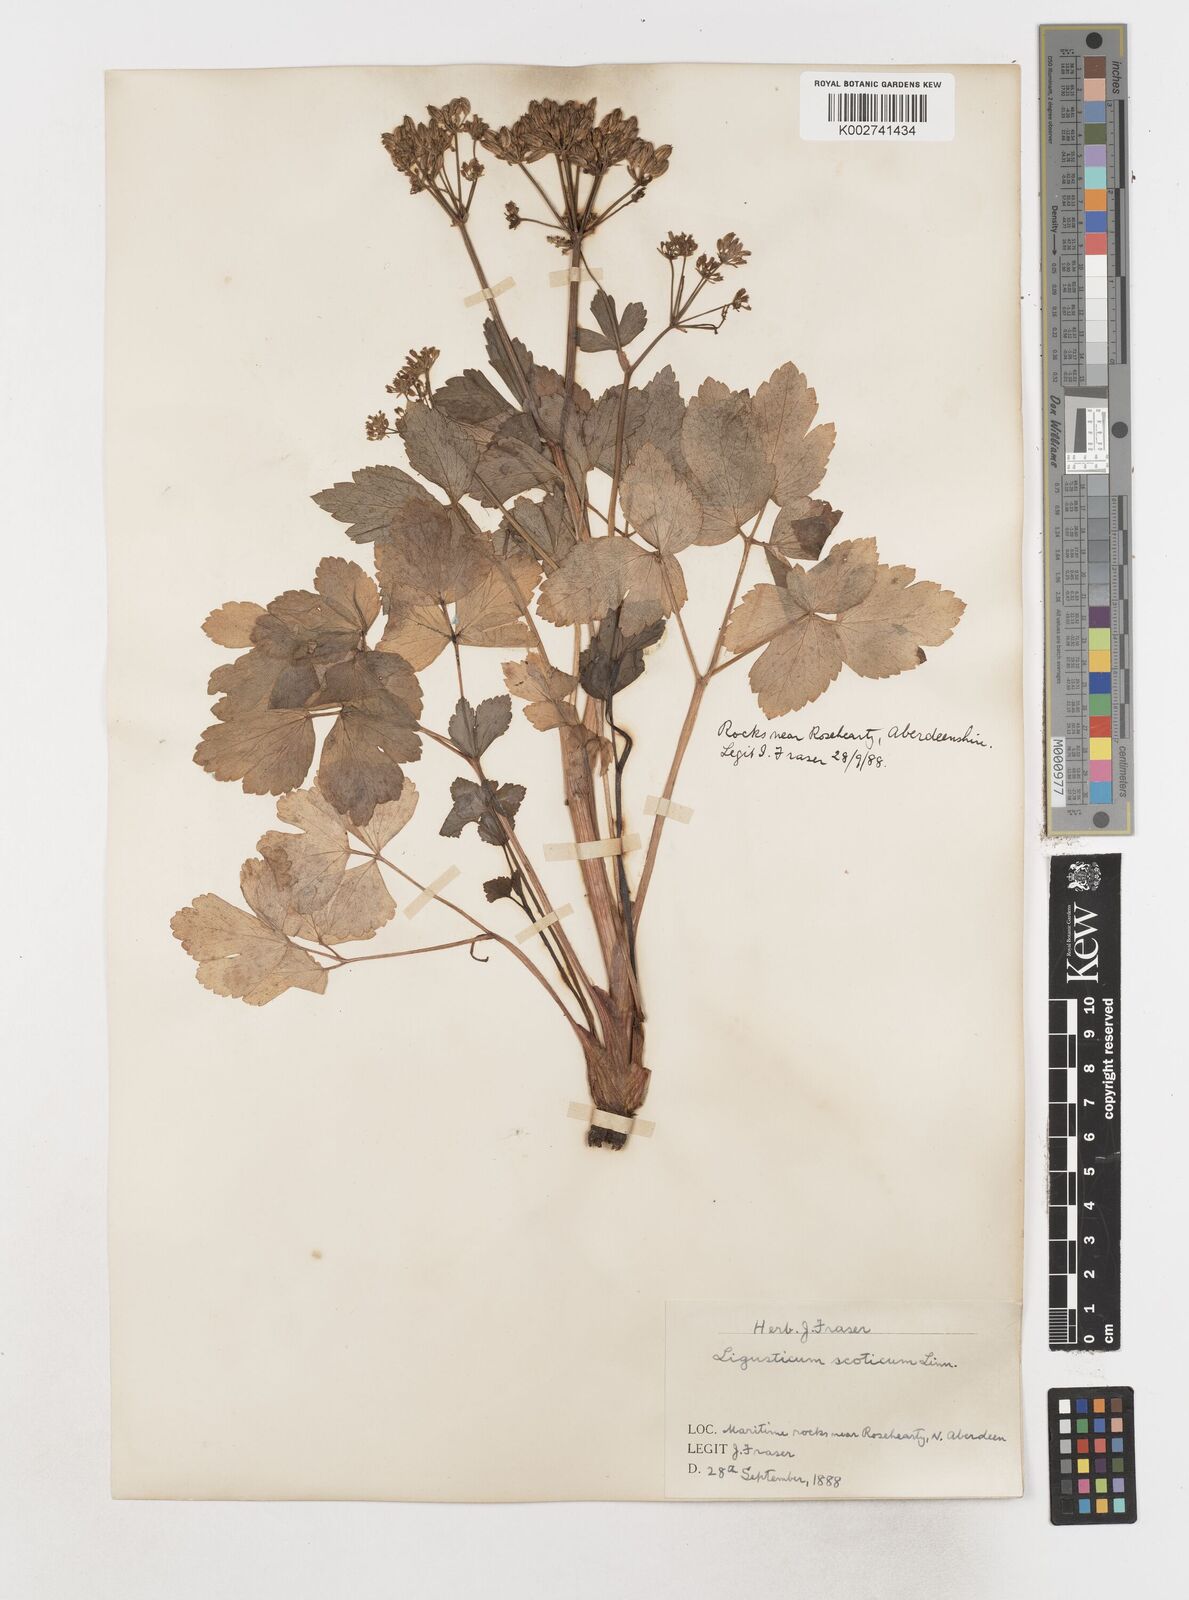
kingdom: Plantae
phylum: Tracheophyta
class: Magnoliopsida
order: Apiales
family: Apiaceae
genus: Ligusticum
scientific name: Ligusticum scothicum
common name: Beach lovage
